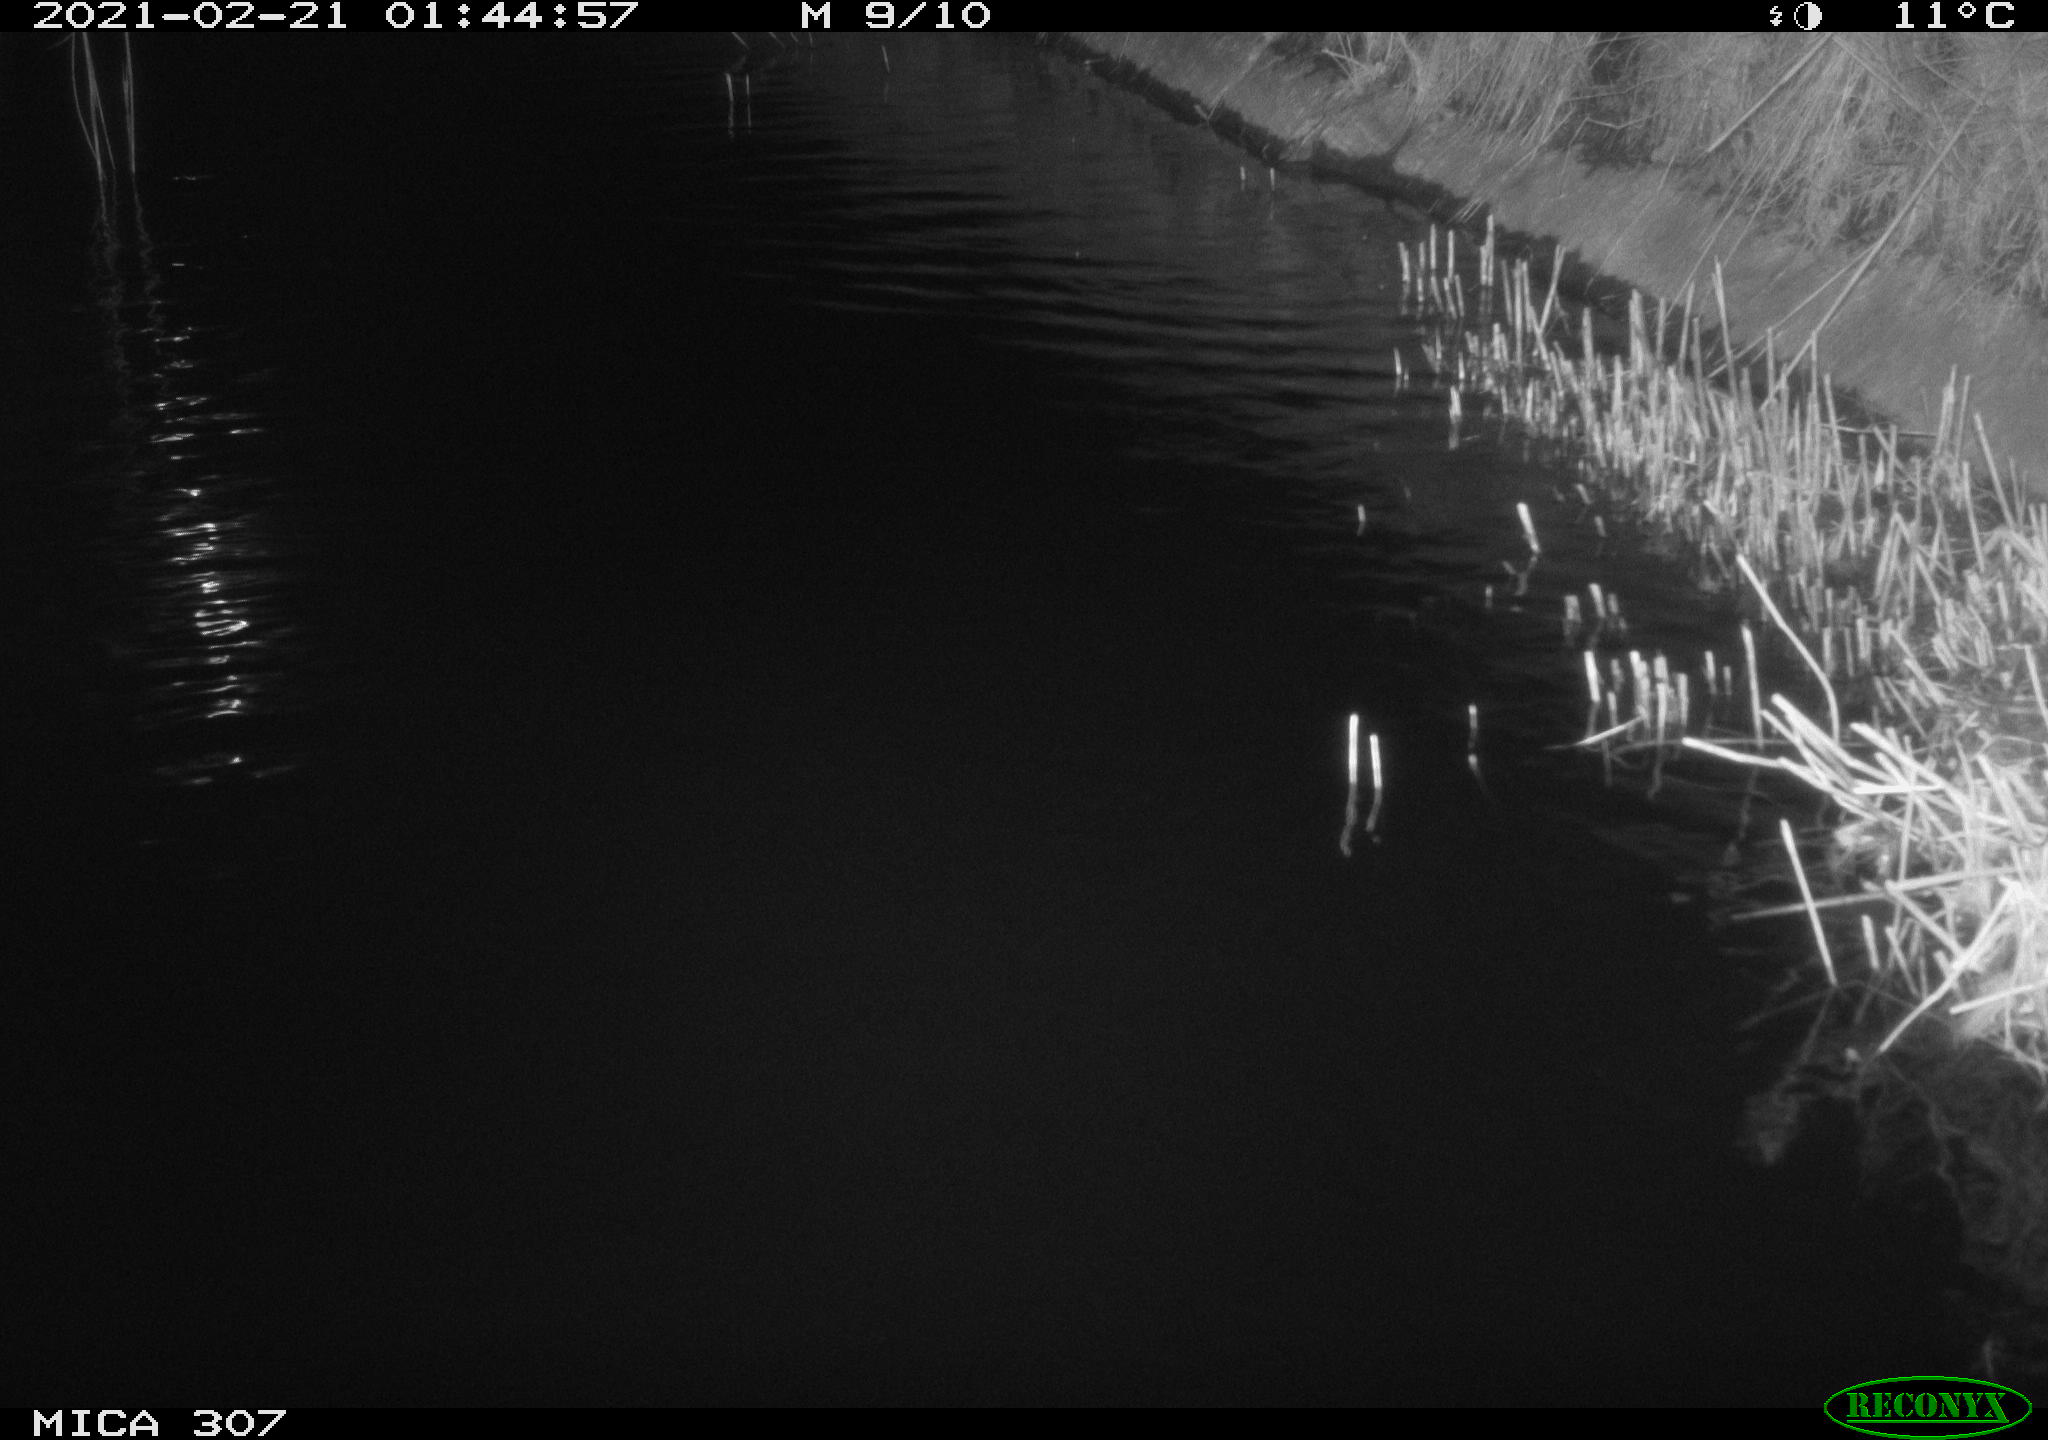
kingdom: Animalia
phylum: Chordata
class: Mammalia
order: Rodentia
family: Cricetidae
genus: Ondatra
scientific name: Ondatra zibethicus
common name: Muskrat
